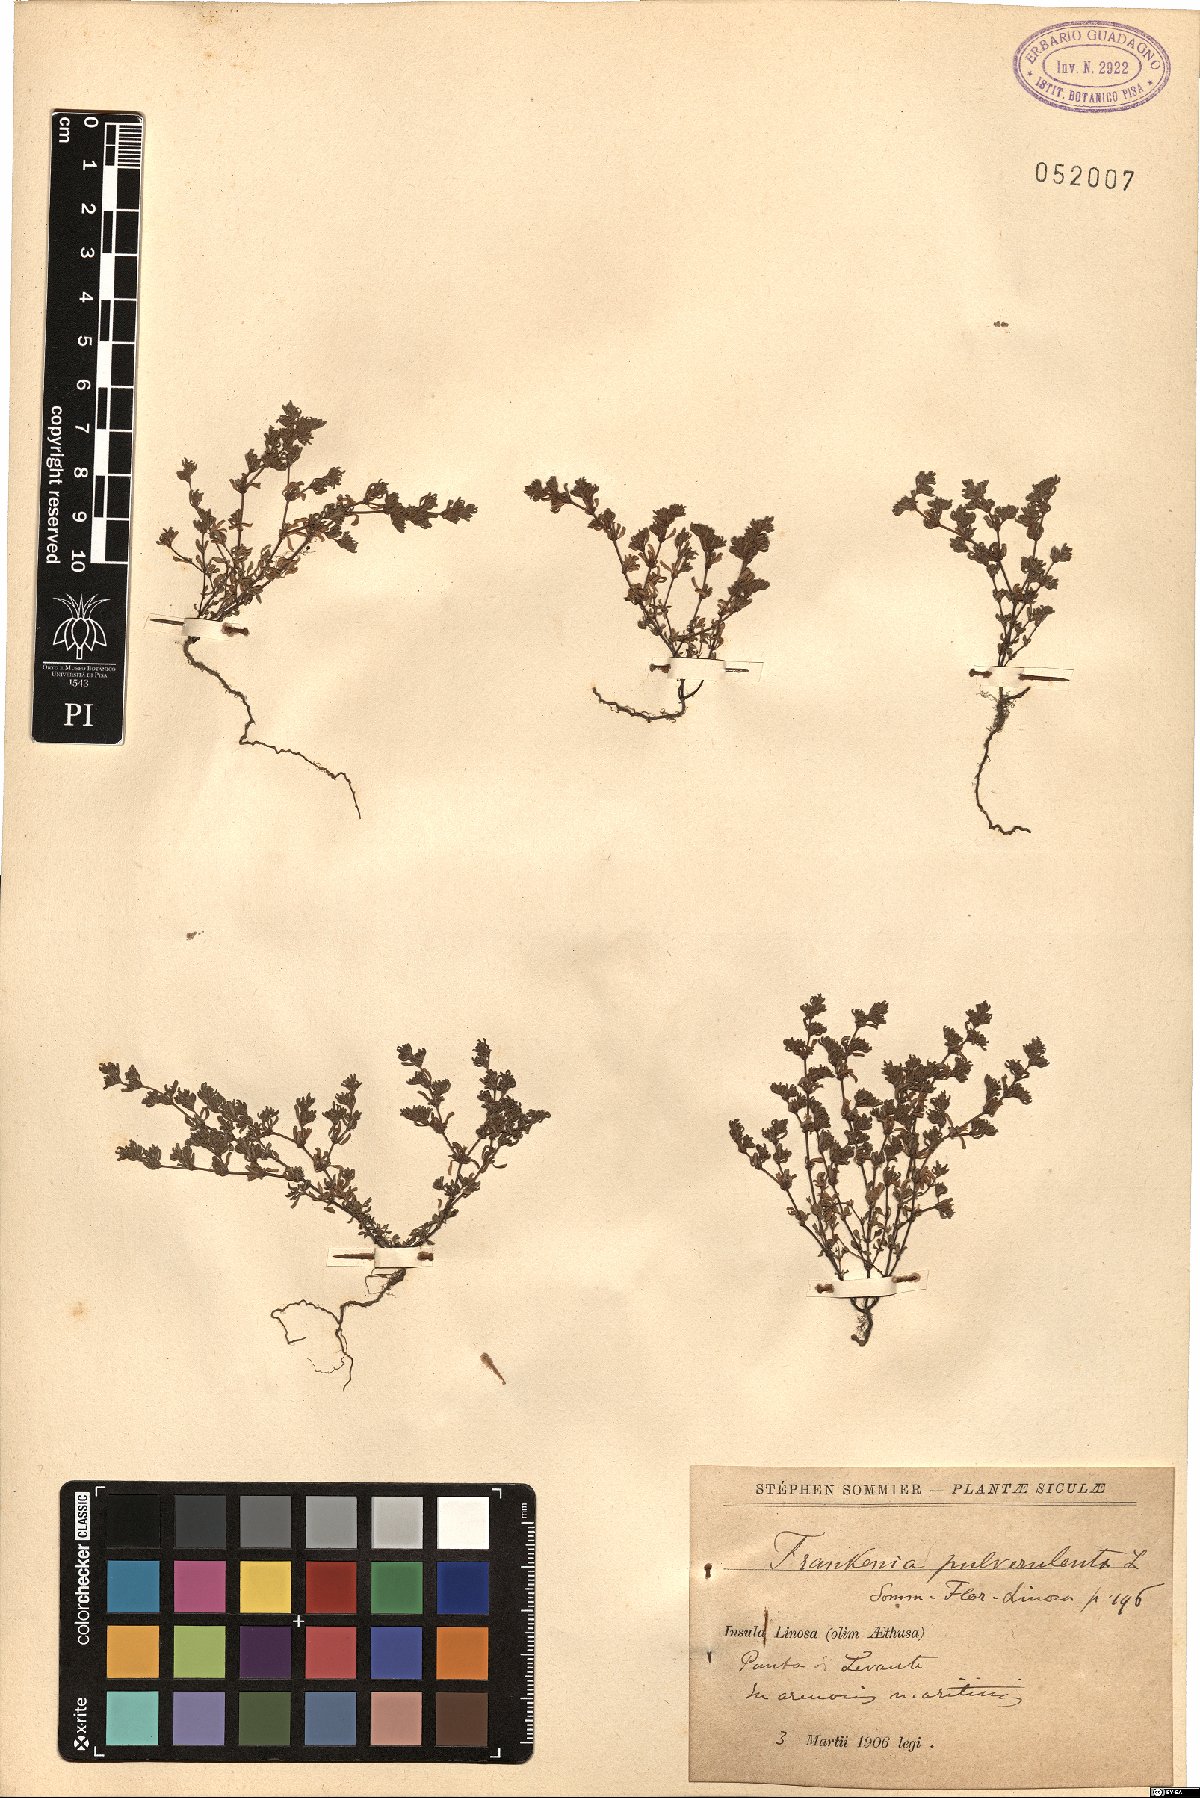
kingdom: Plantae
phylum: Tracheophyta
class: Magnoliopsida
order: Caryophyllales
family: Frankeniaceae
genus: Frankenia
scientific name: Frankenia pulverulenta
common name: European seaheath
